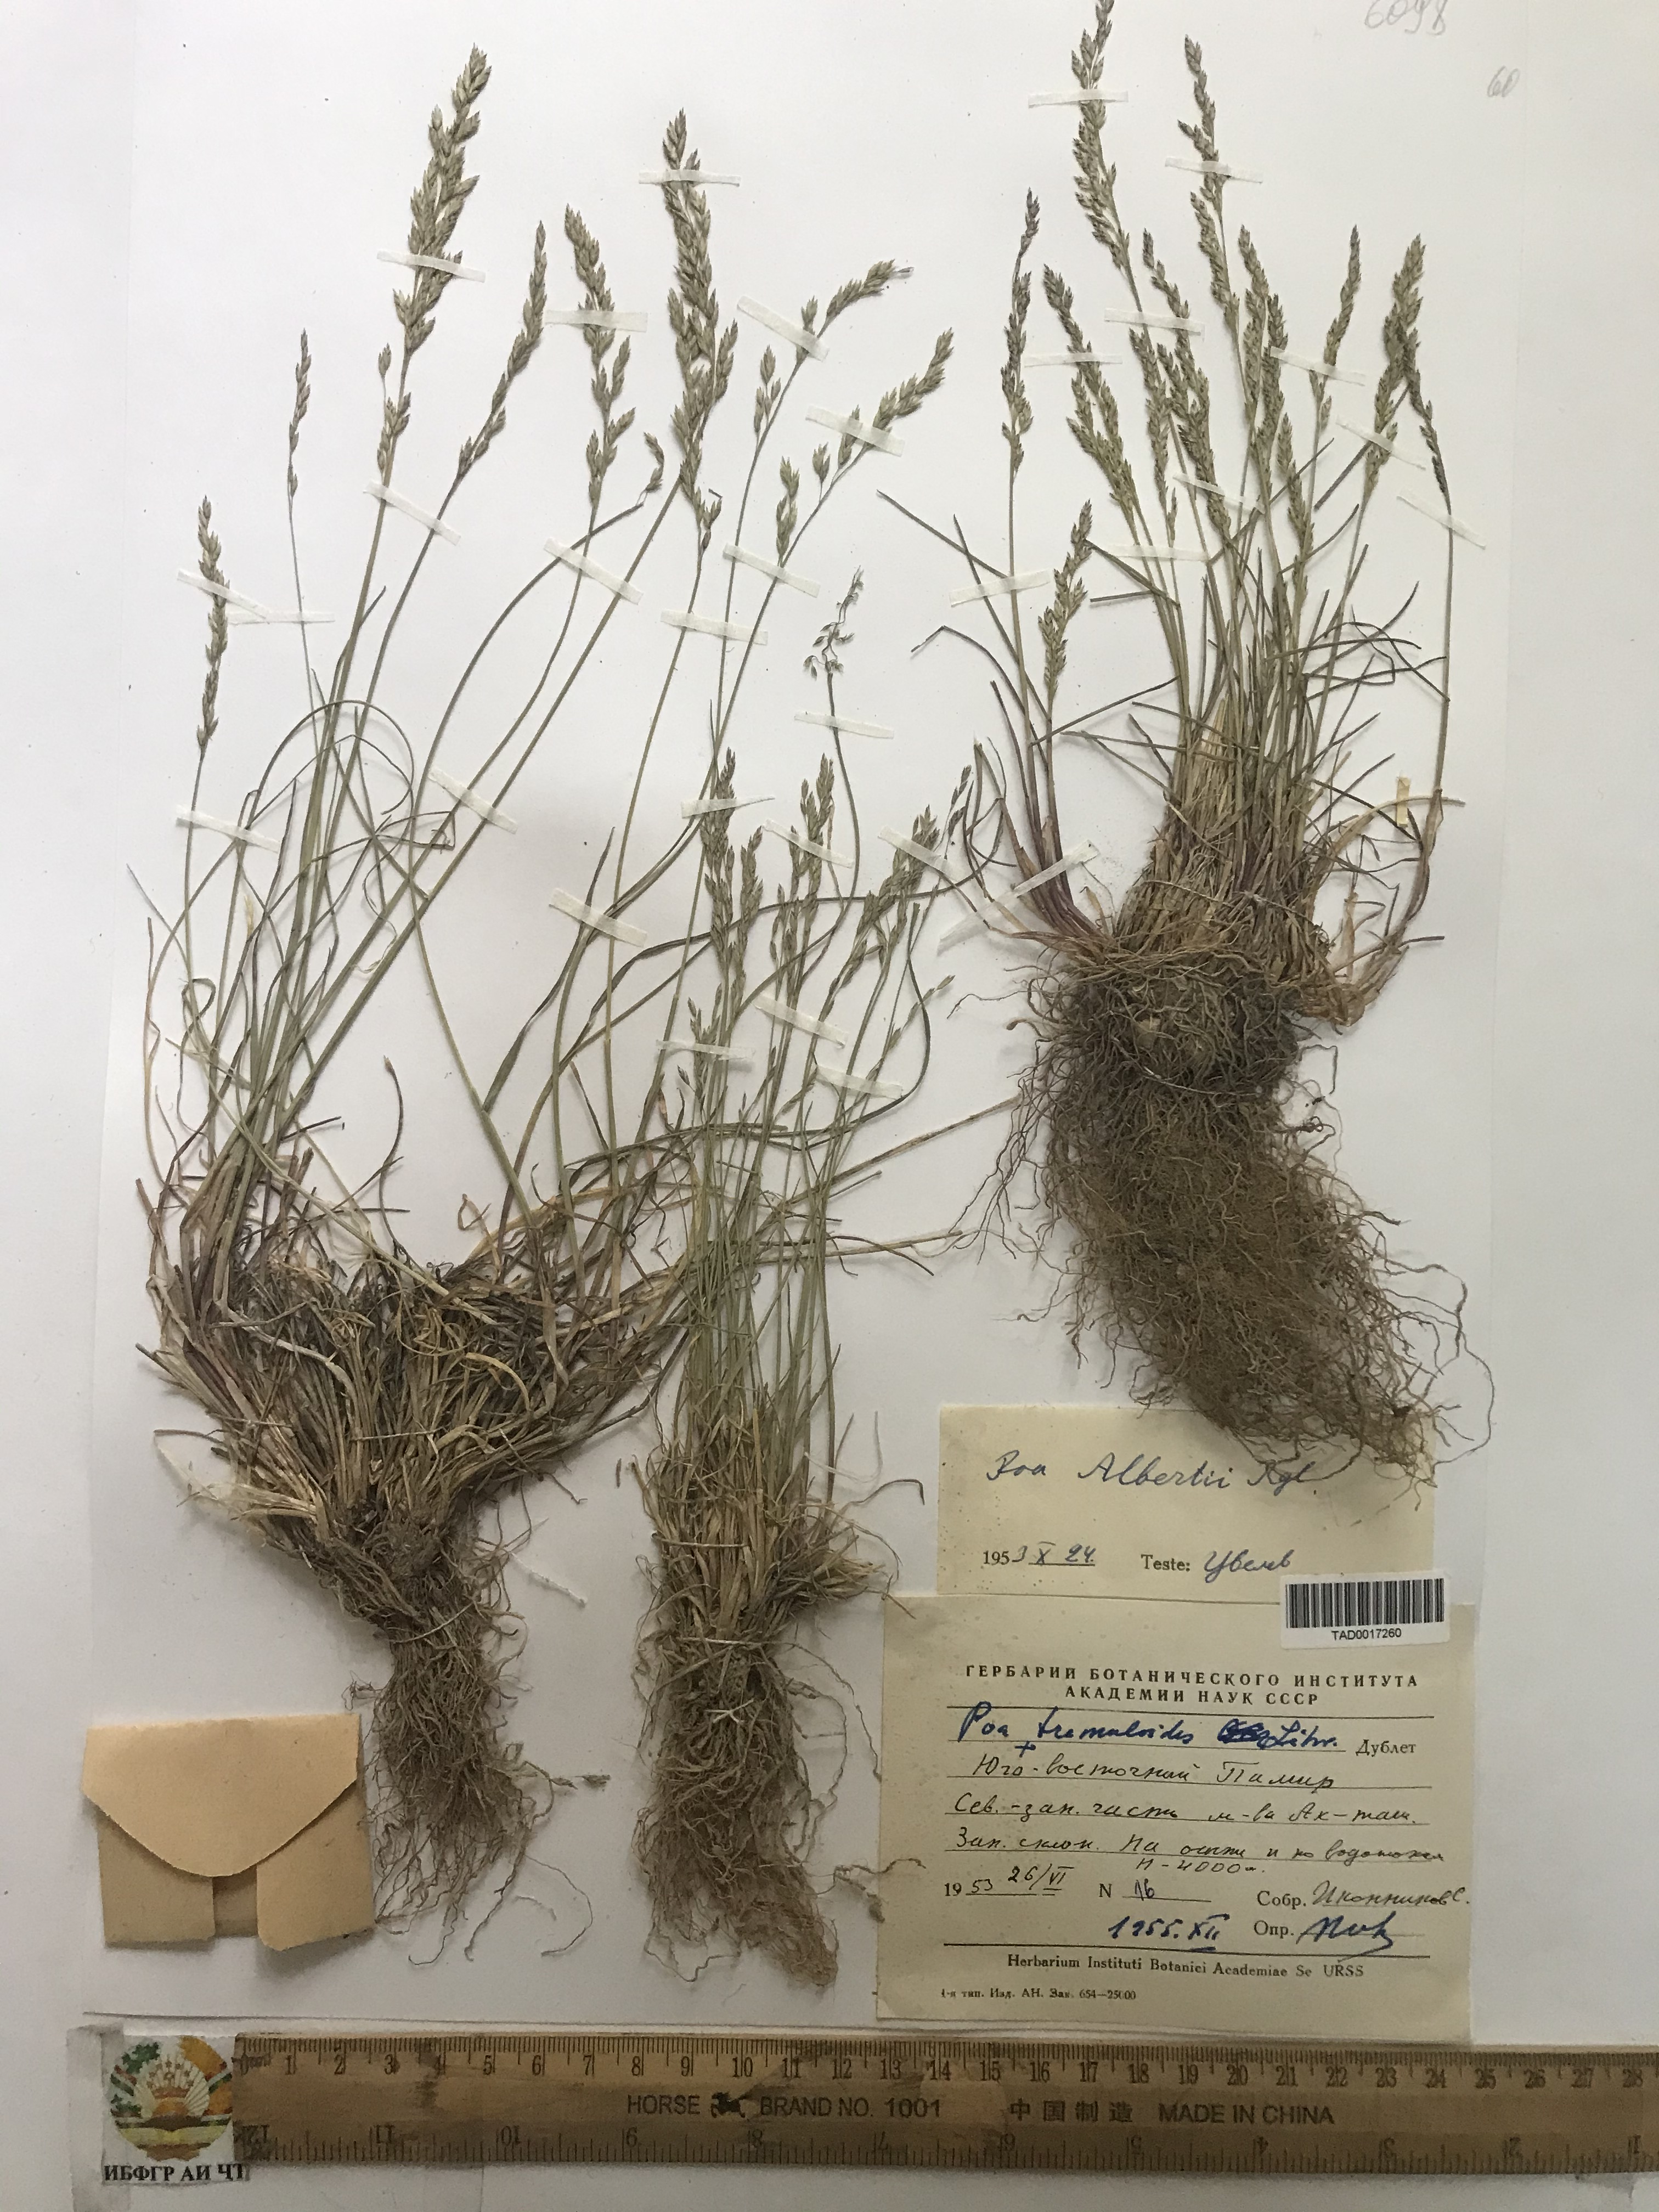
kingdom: Plantae
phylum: Tracheophyta
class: Liliopsida
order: Poales
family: Poaceae
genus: Poa
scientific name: Poa alberti
